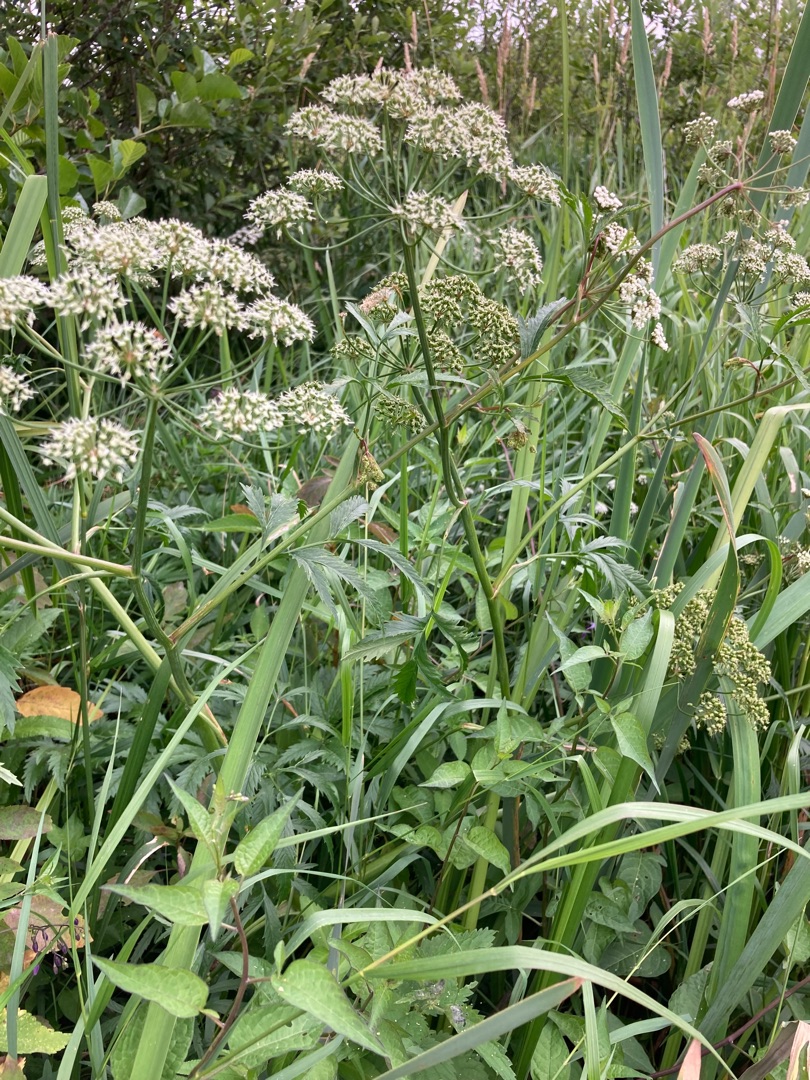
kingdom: Plantae
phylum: Tracheophyta
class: Magnoliopsida
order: Apiales
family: Apiaceae
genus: Cicuta
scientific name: Cicuta virosa
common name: Gifttyde
